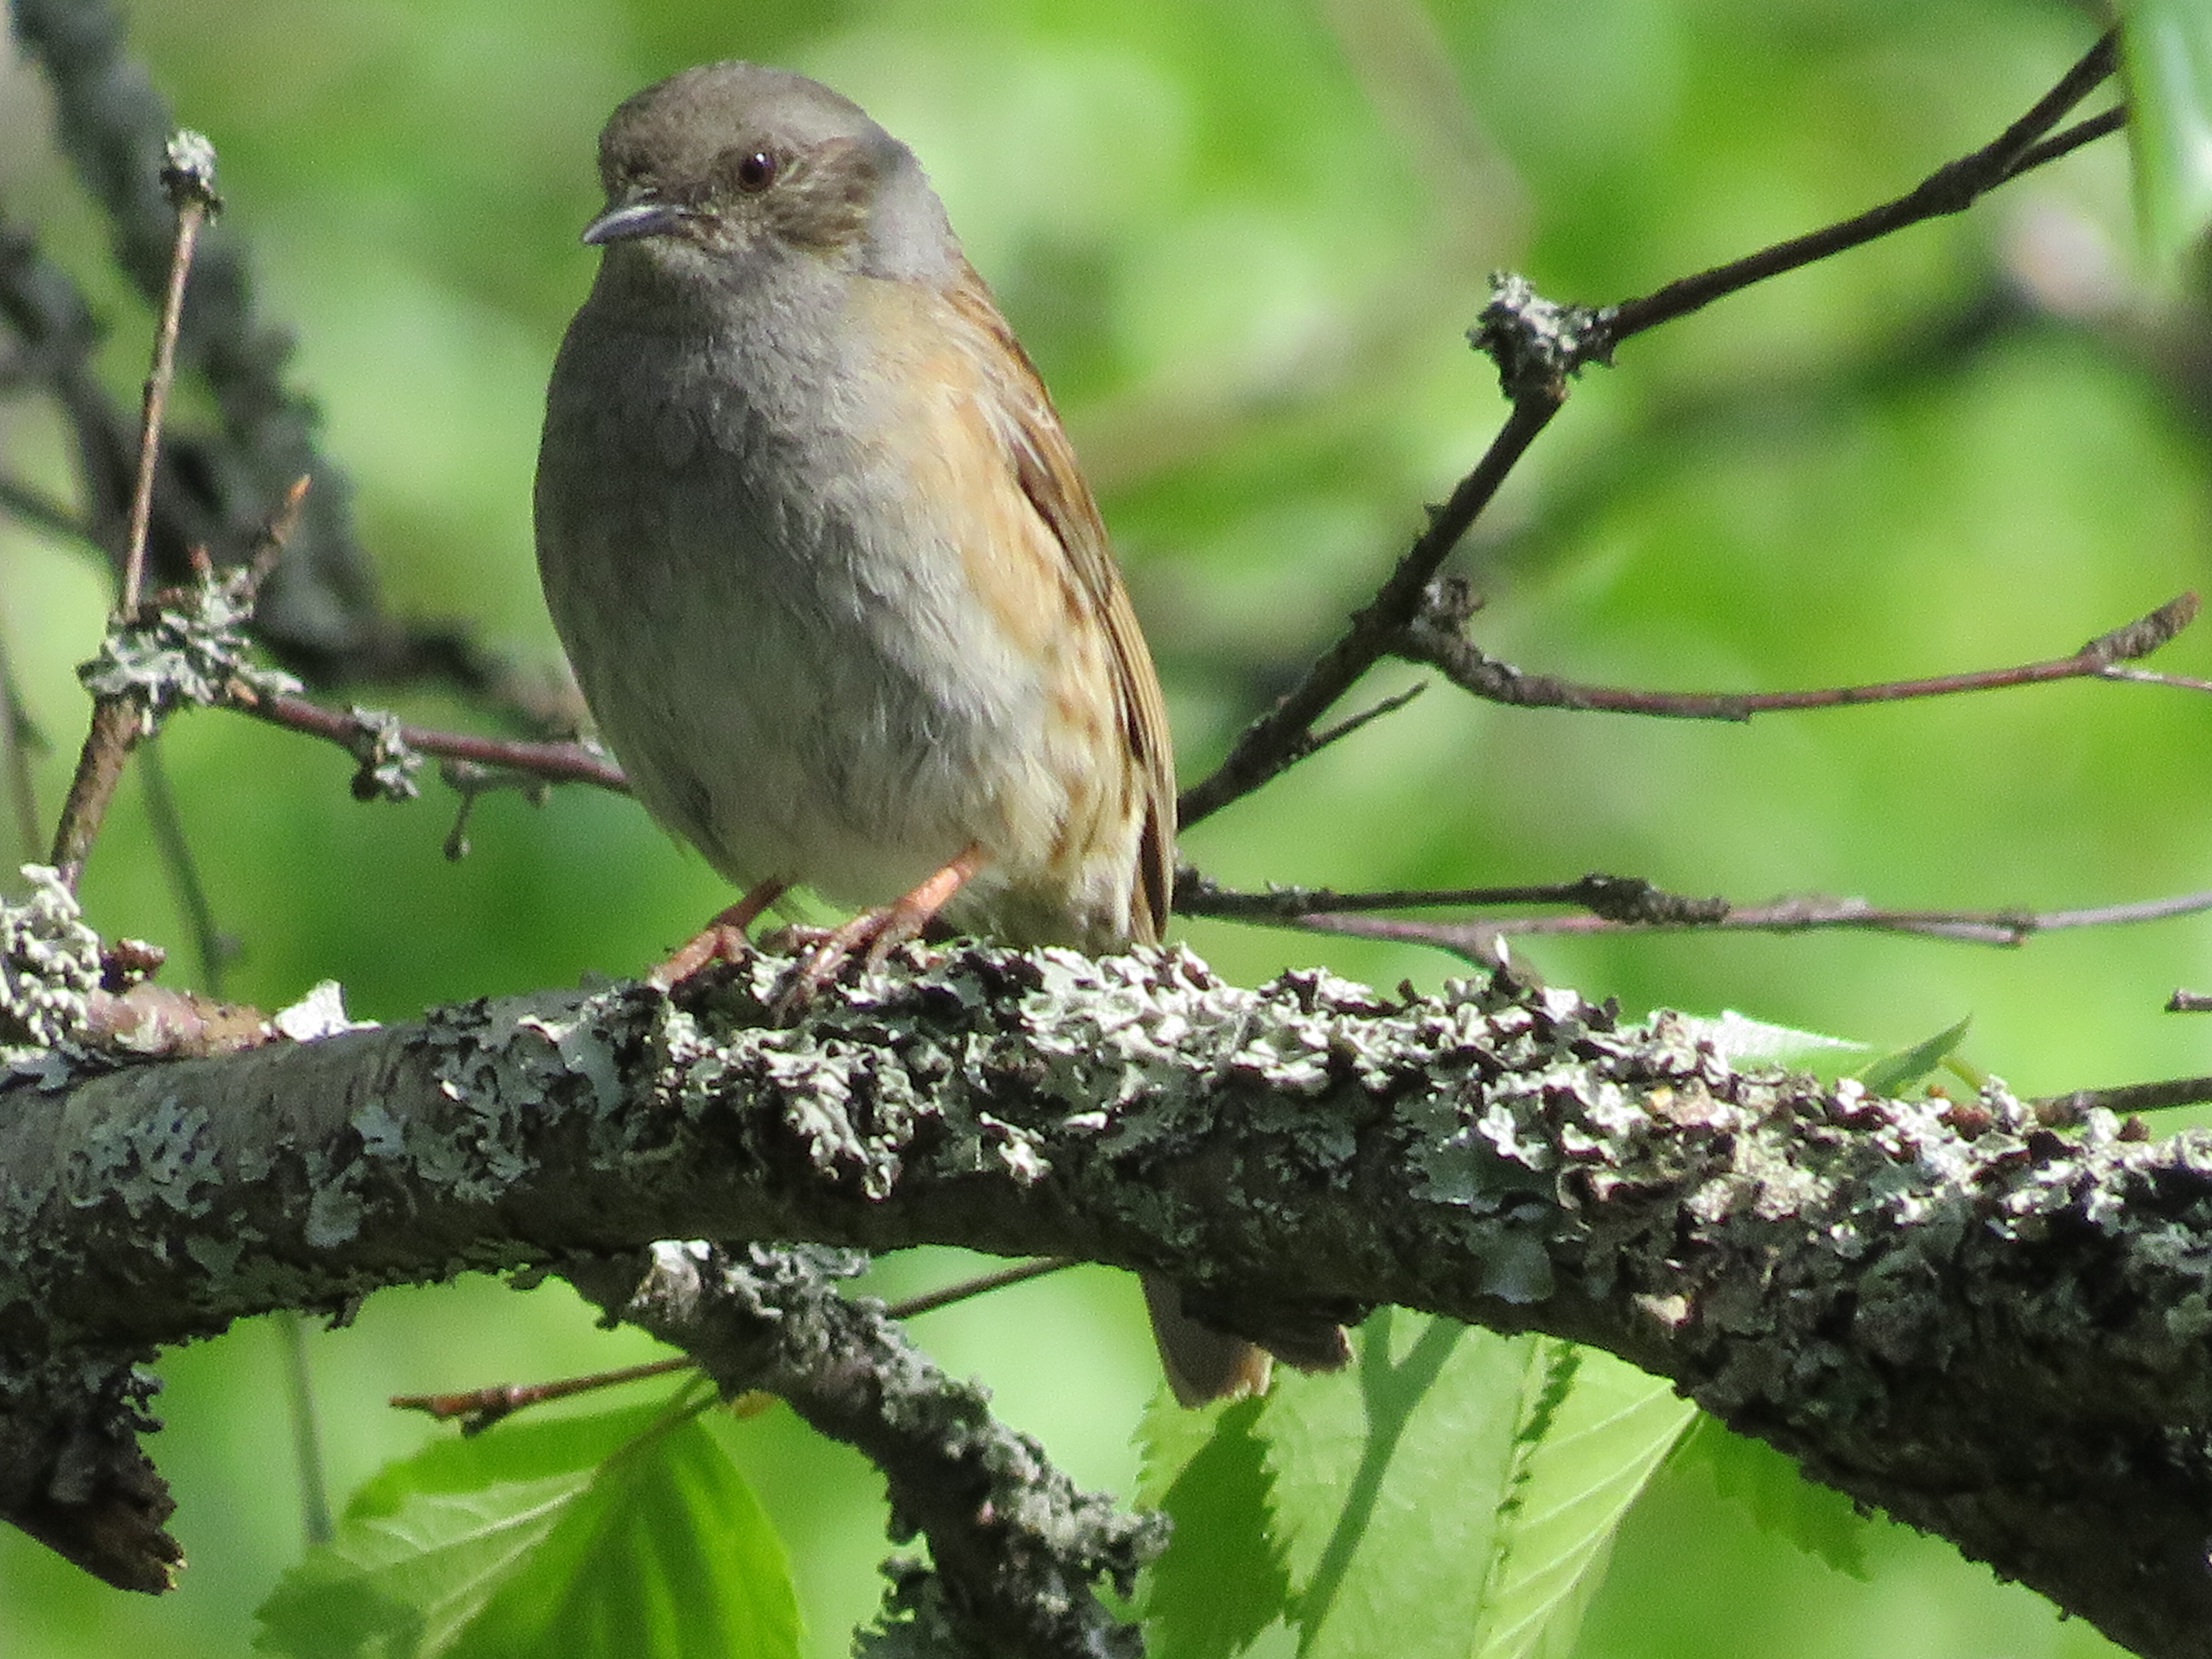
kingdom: Animalia
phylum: Chordata
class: Aves
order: Passeriformes
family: Prunellidae
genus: Prunella
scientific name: Prunella modularis
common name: Dunnock
